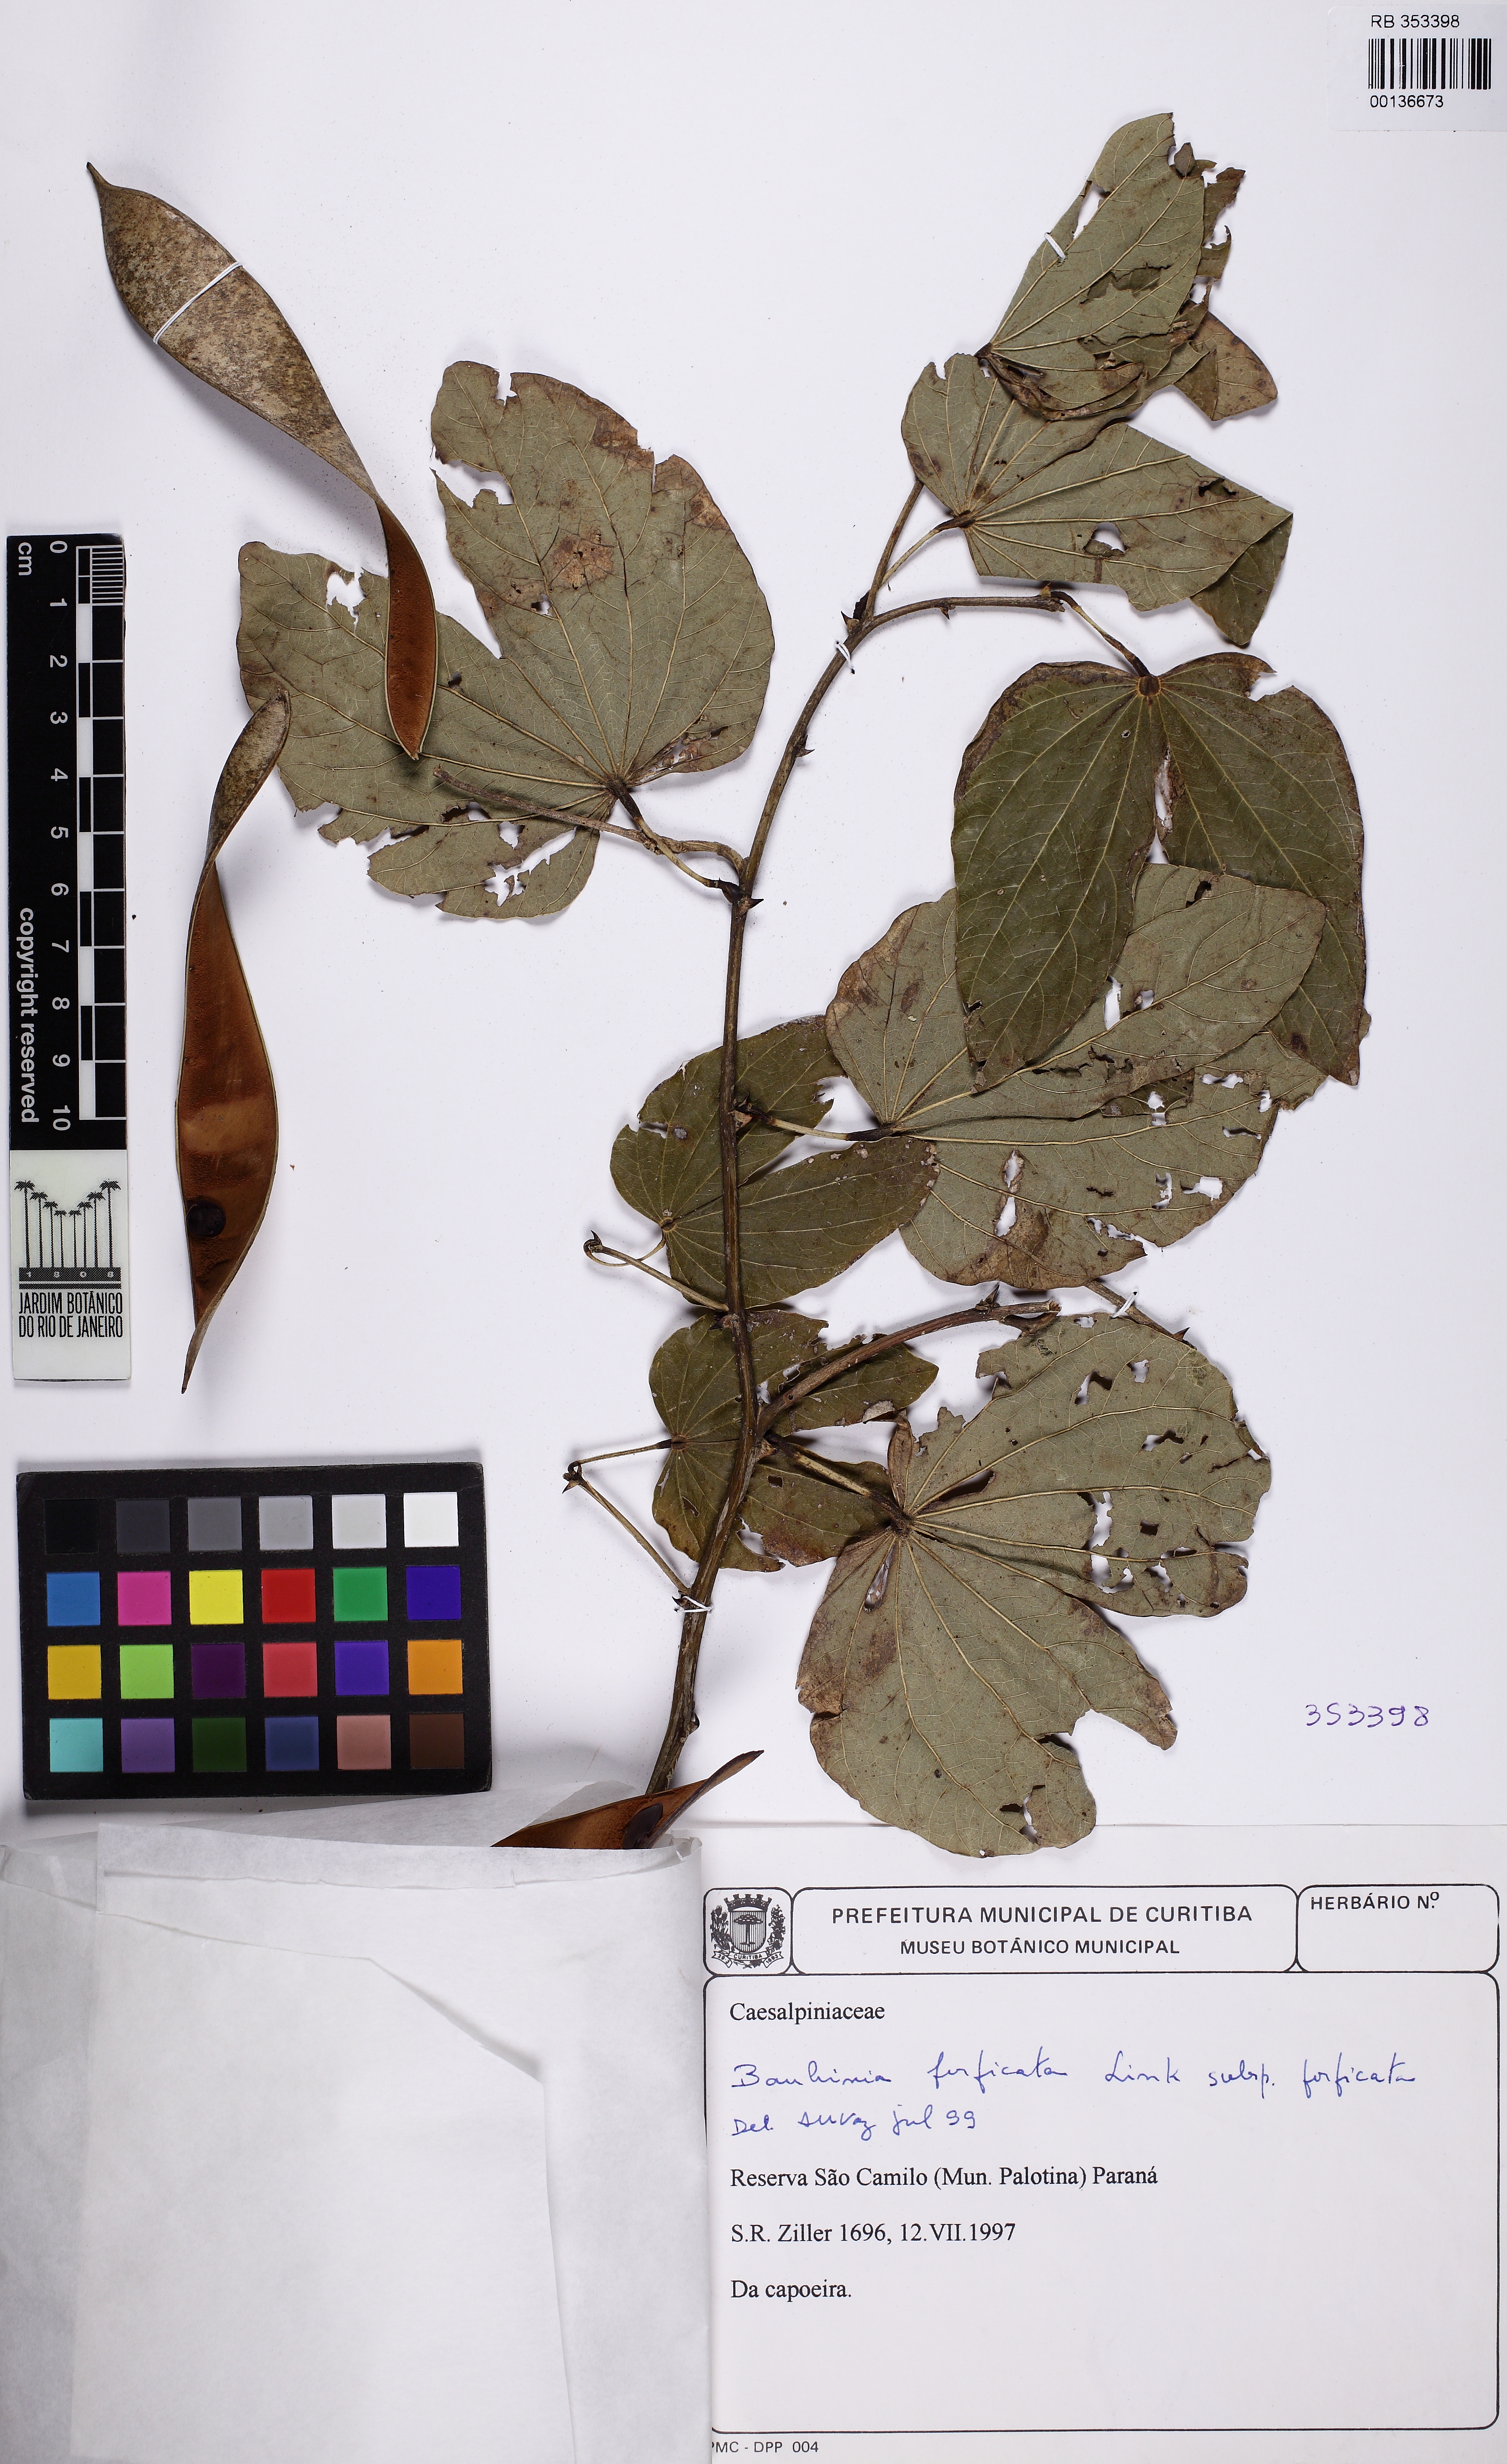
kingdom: Plantae
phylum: Tracheophyta
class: Magnoliopsida
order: Fabales
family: Fabaceae
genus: Bauhinia
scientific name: Bauhinia forficata
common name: Orchid tree
